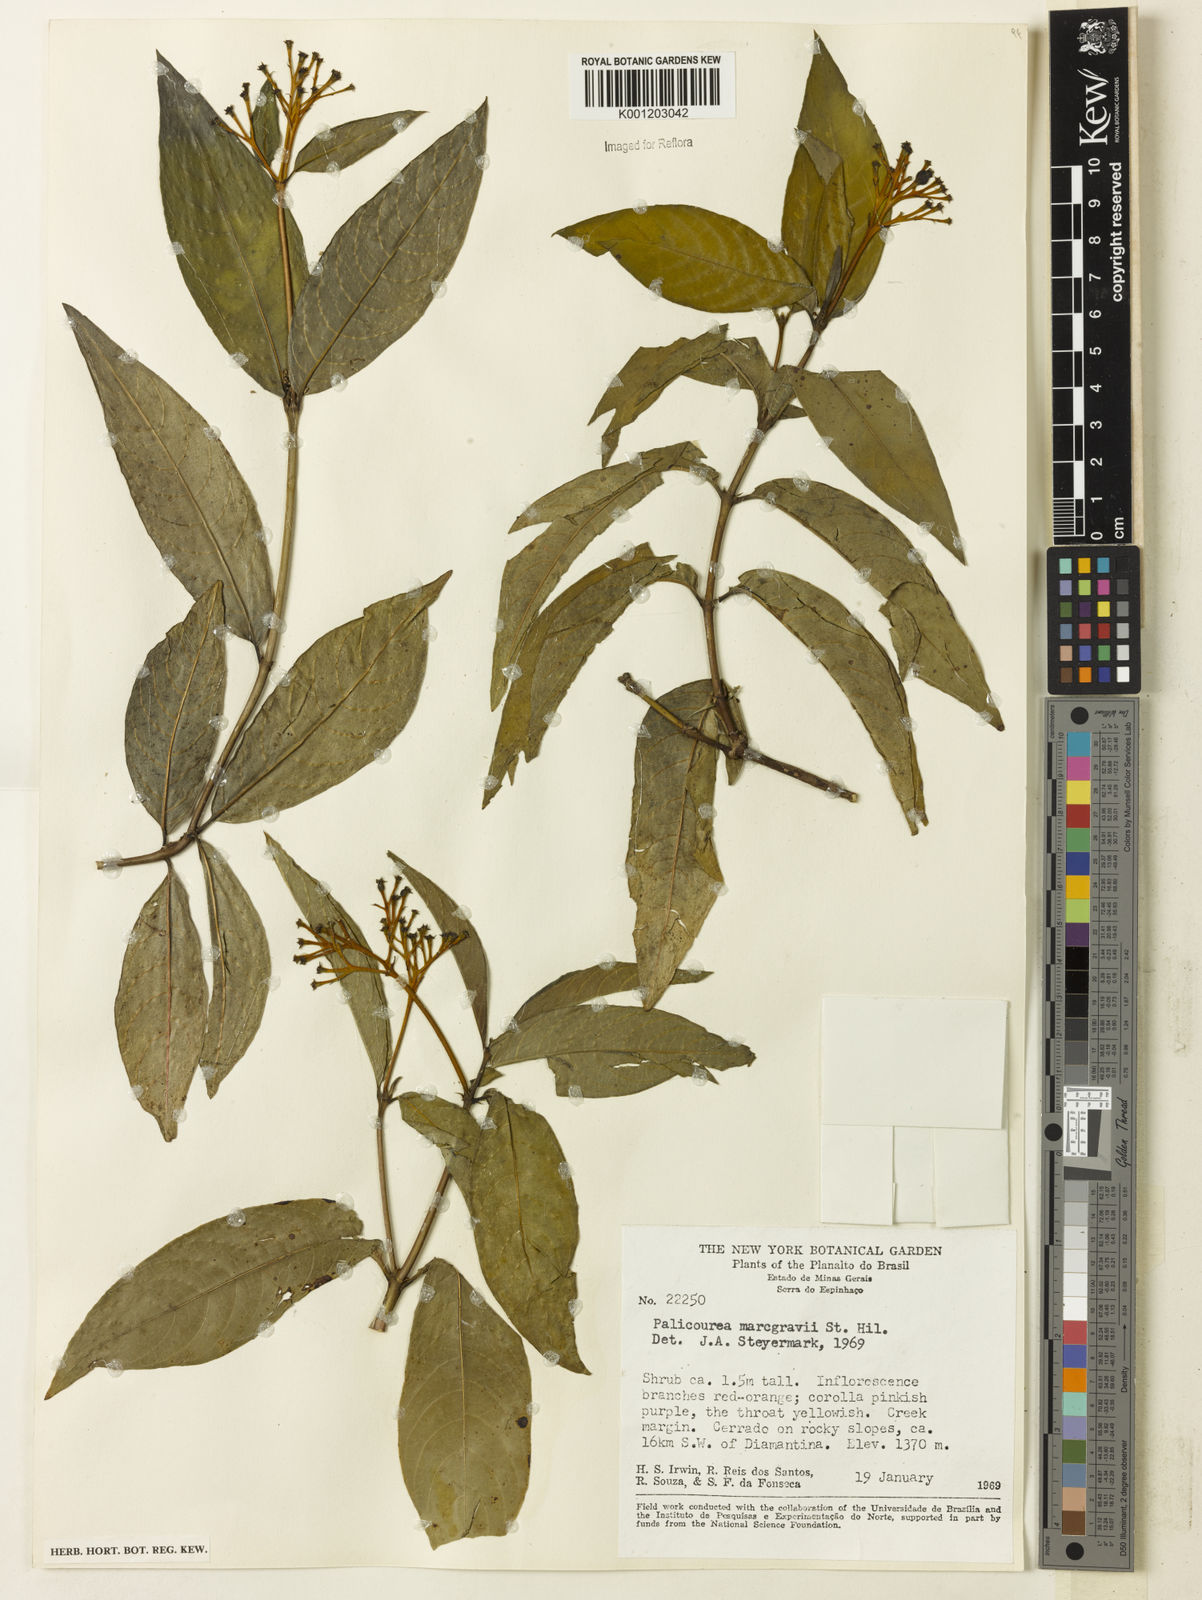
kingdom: Plantae
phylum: Tracheophyta
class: Magnoliopsida
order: Gentianales
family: Rubiaceae
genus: Palicourea
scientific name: Palicourea marcgravii
